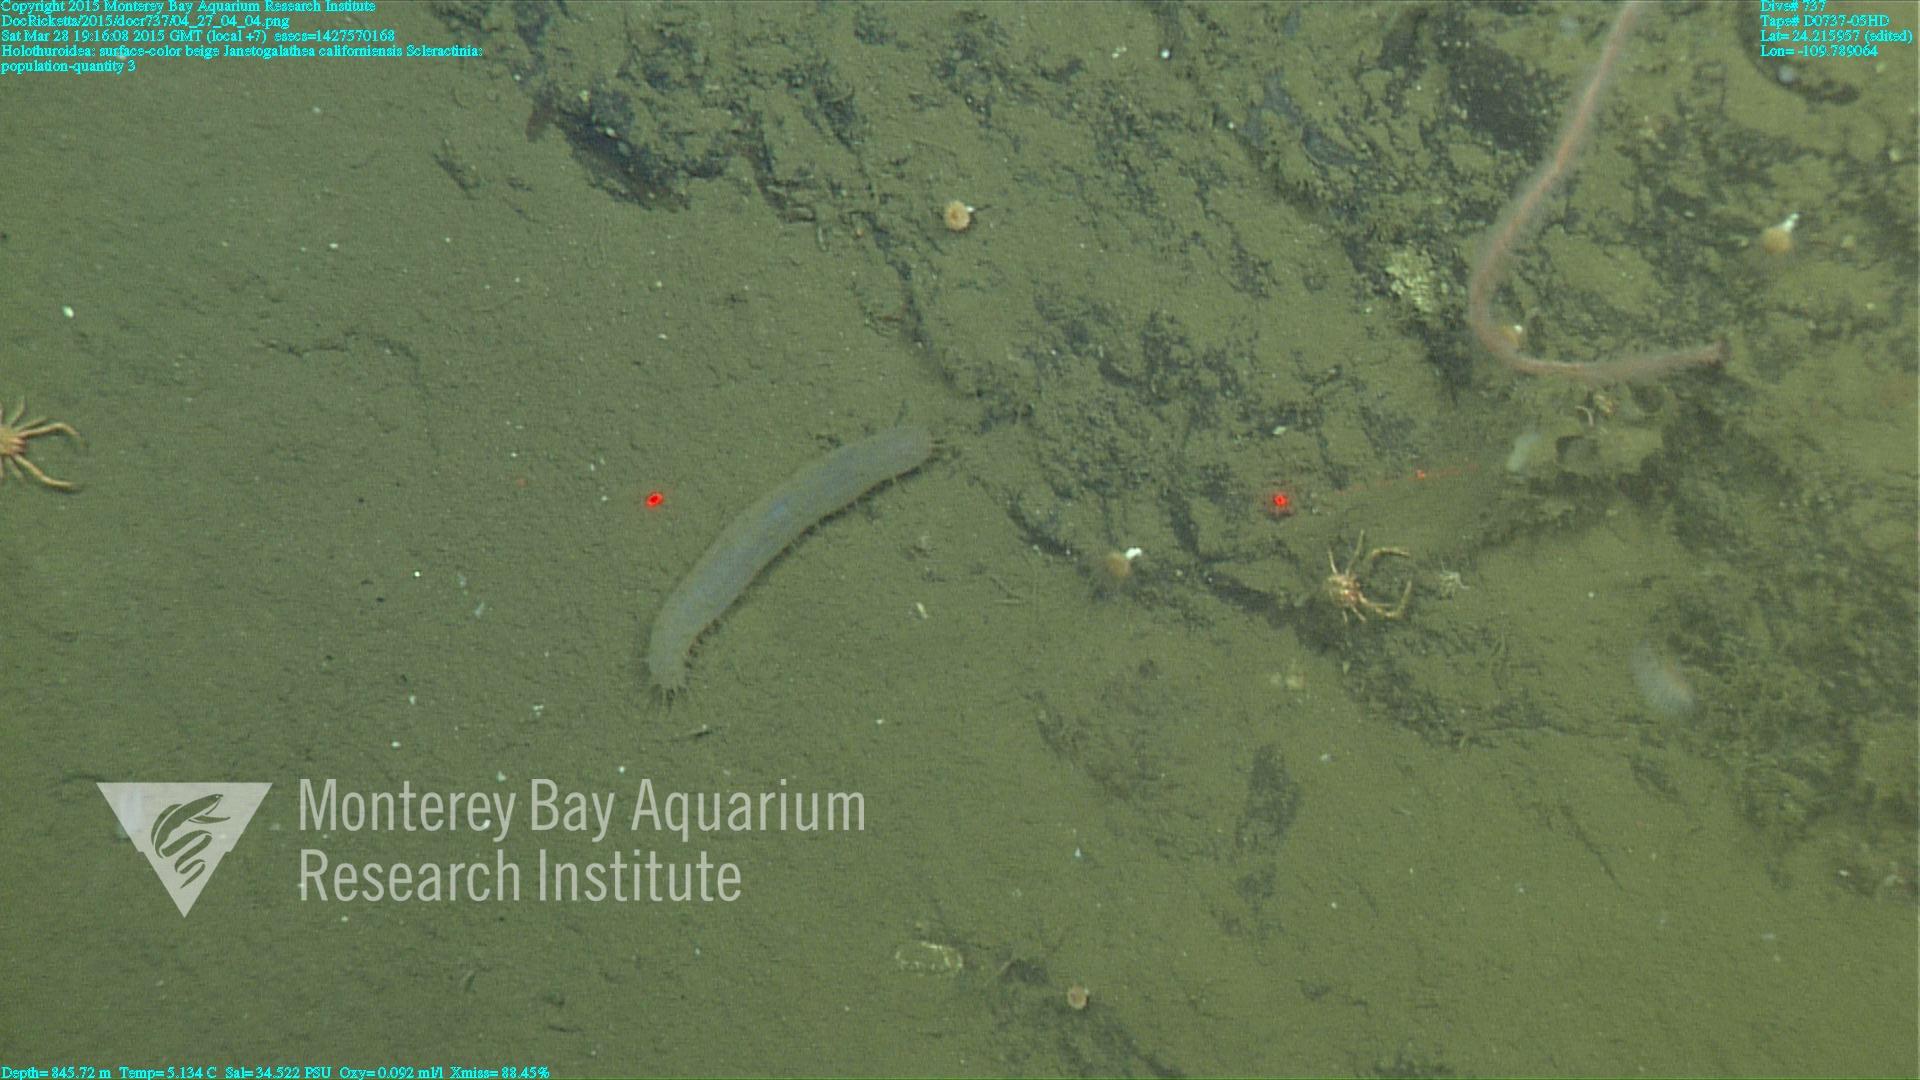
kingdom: Animalia
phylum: Cnidaria
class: Anthozoa
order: Scleractinia
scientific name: Scleractinia
